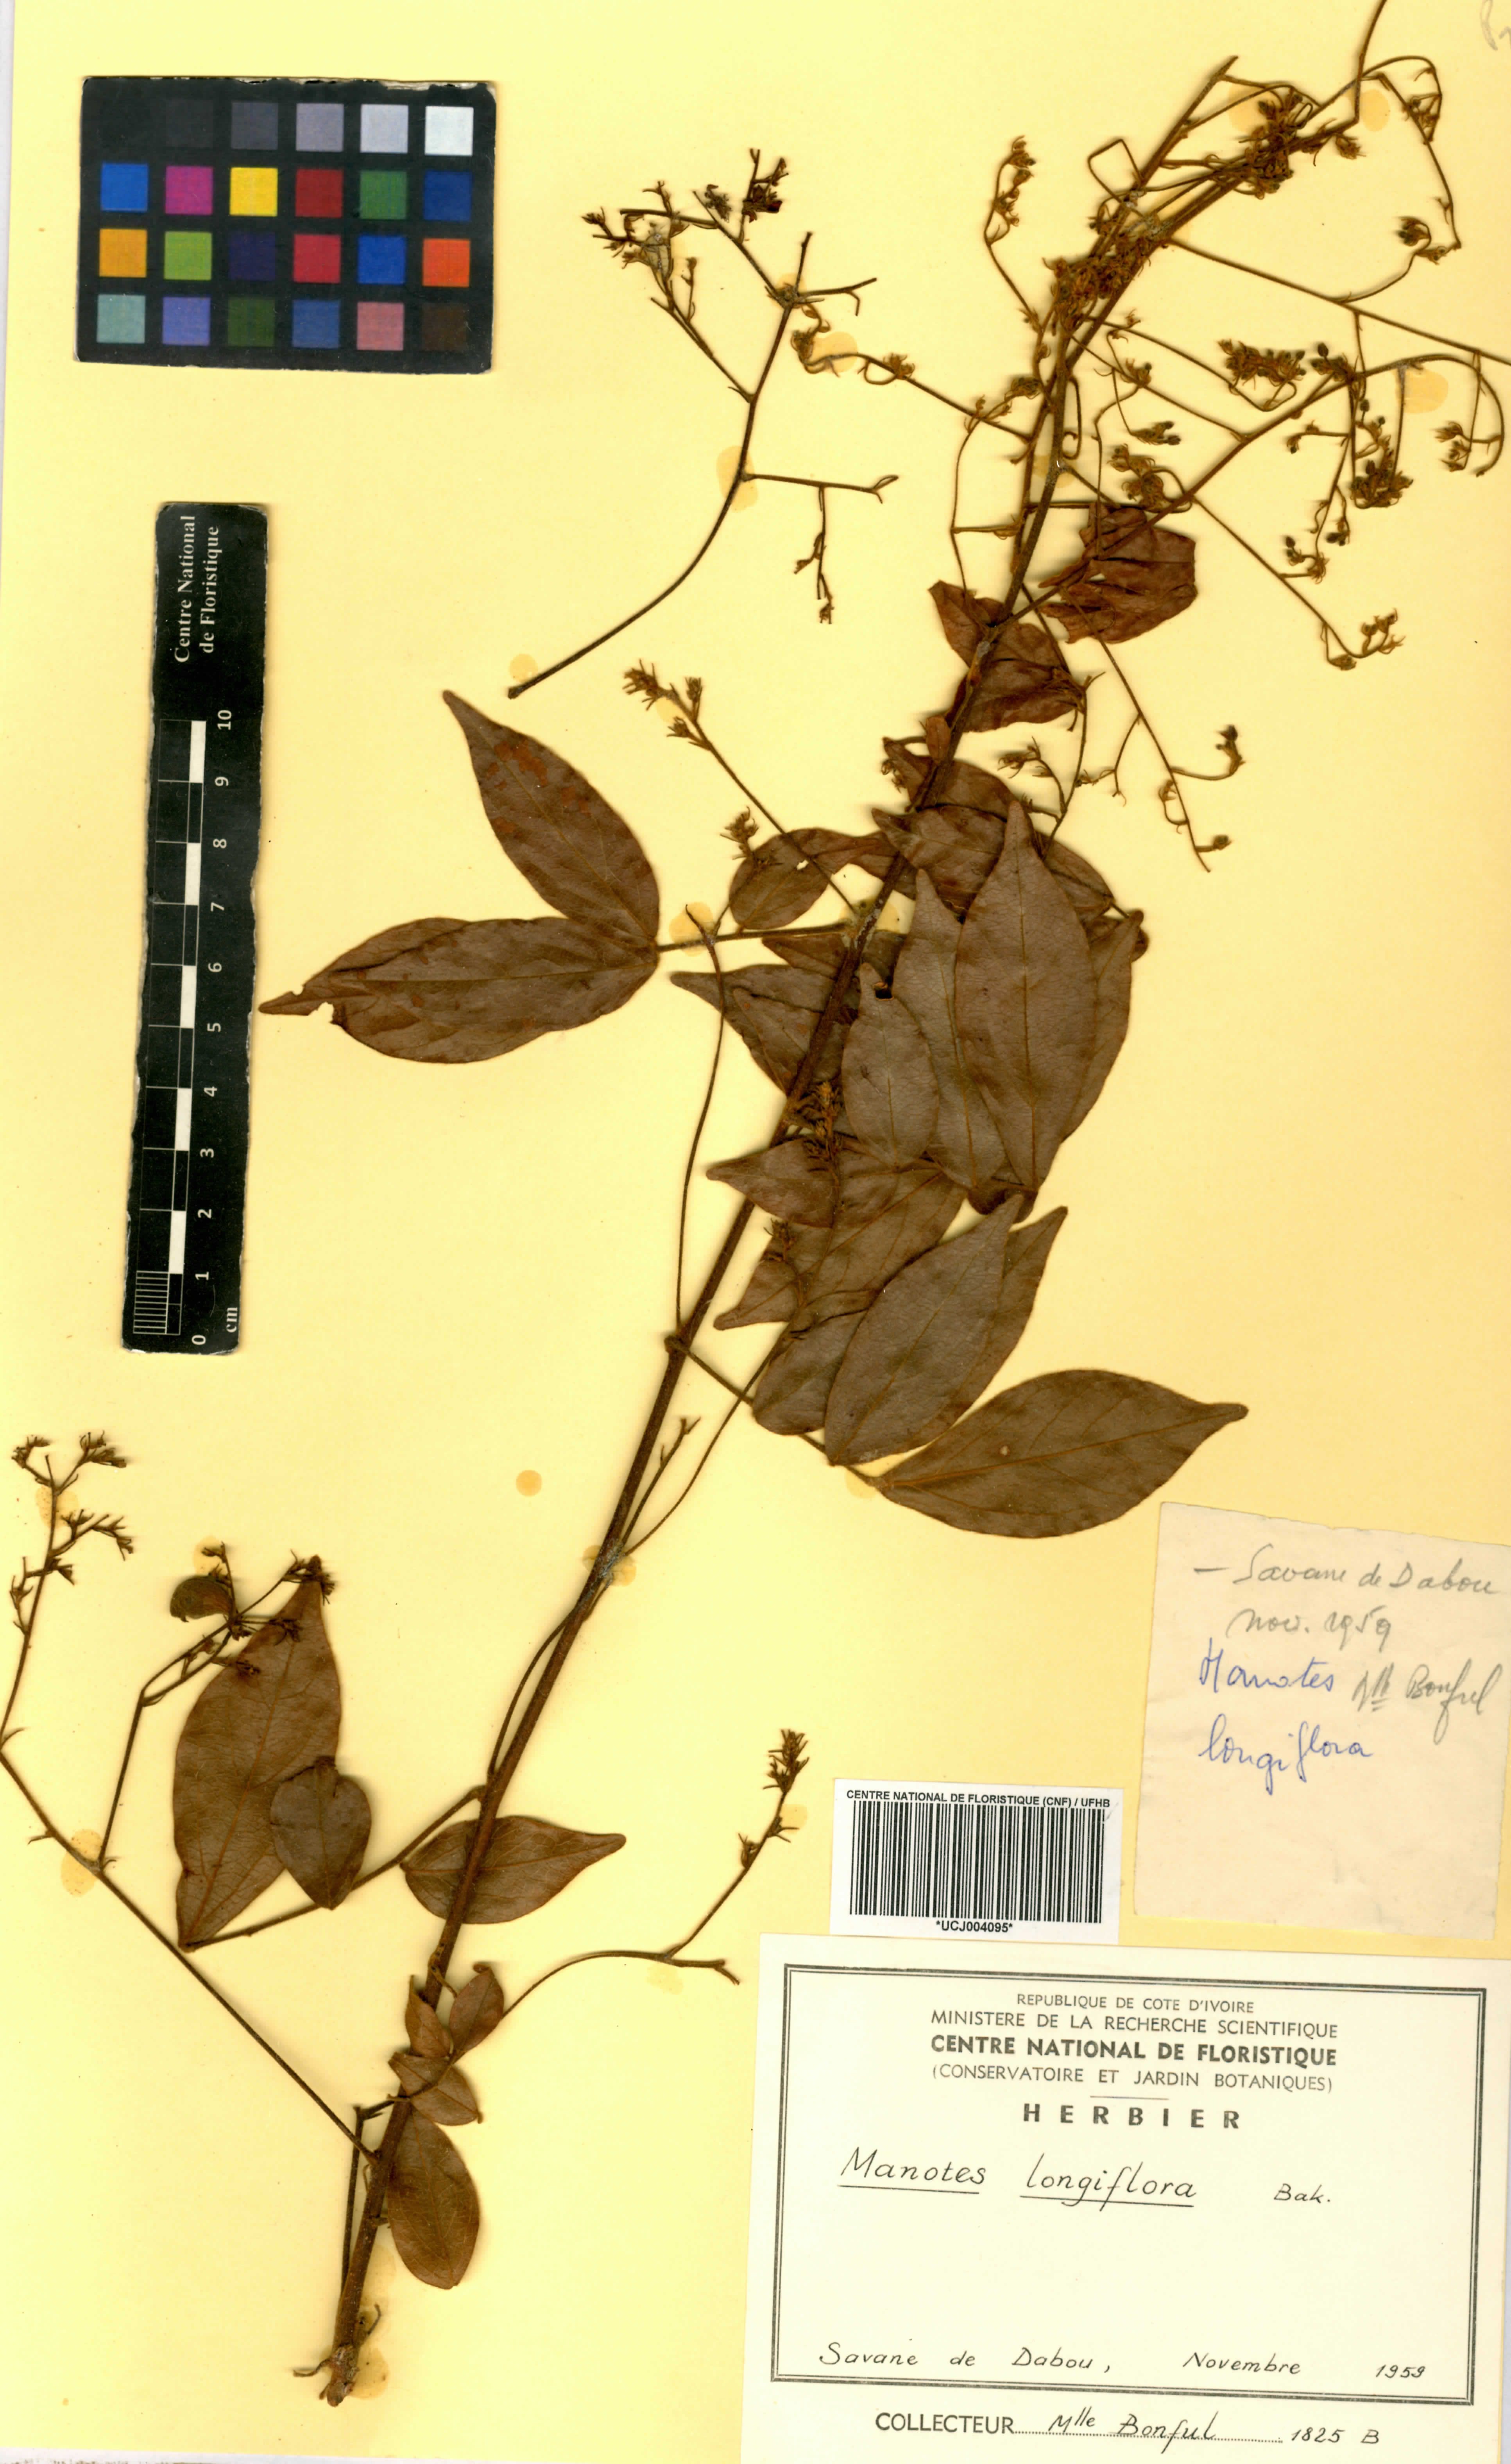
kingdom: Plantae
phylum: Tracheophyta
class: Magnoliopsida
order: Oxalidales
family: Connaraceae
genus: Manotes
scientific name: Manotes expansa
